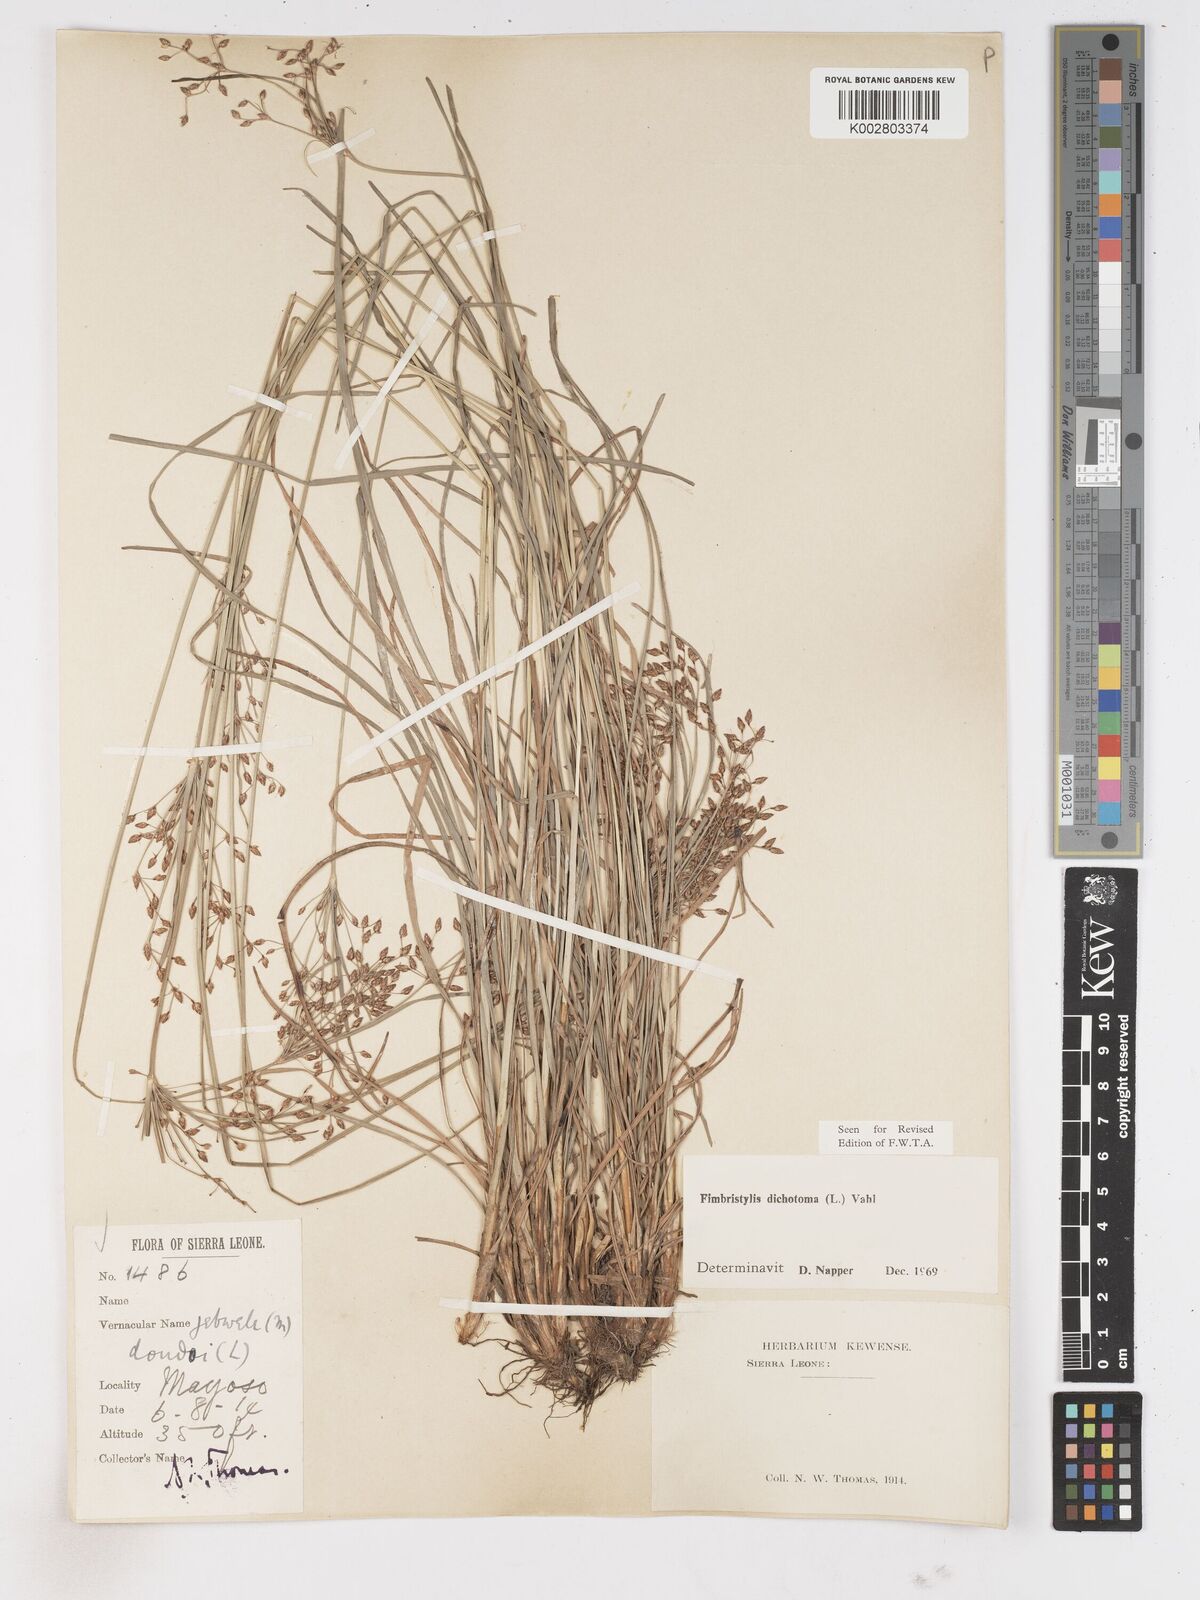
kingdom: Plantae
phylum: Tracheophyta
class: Liliopsida
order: Poales
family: Cyperaceae
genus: Fimbristylis
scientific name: Fimbristylis dichotoma
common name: Forked fimbry
